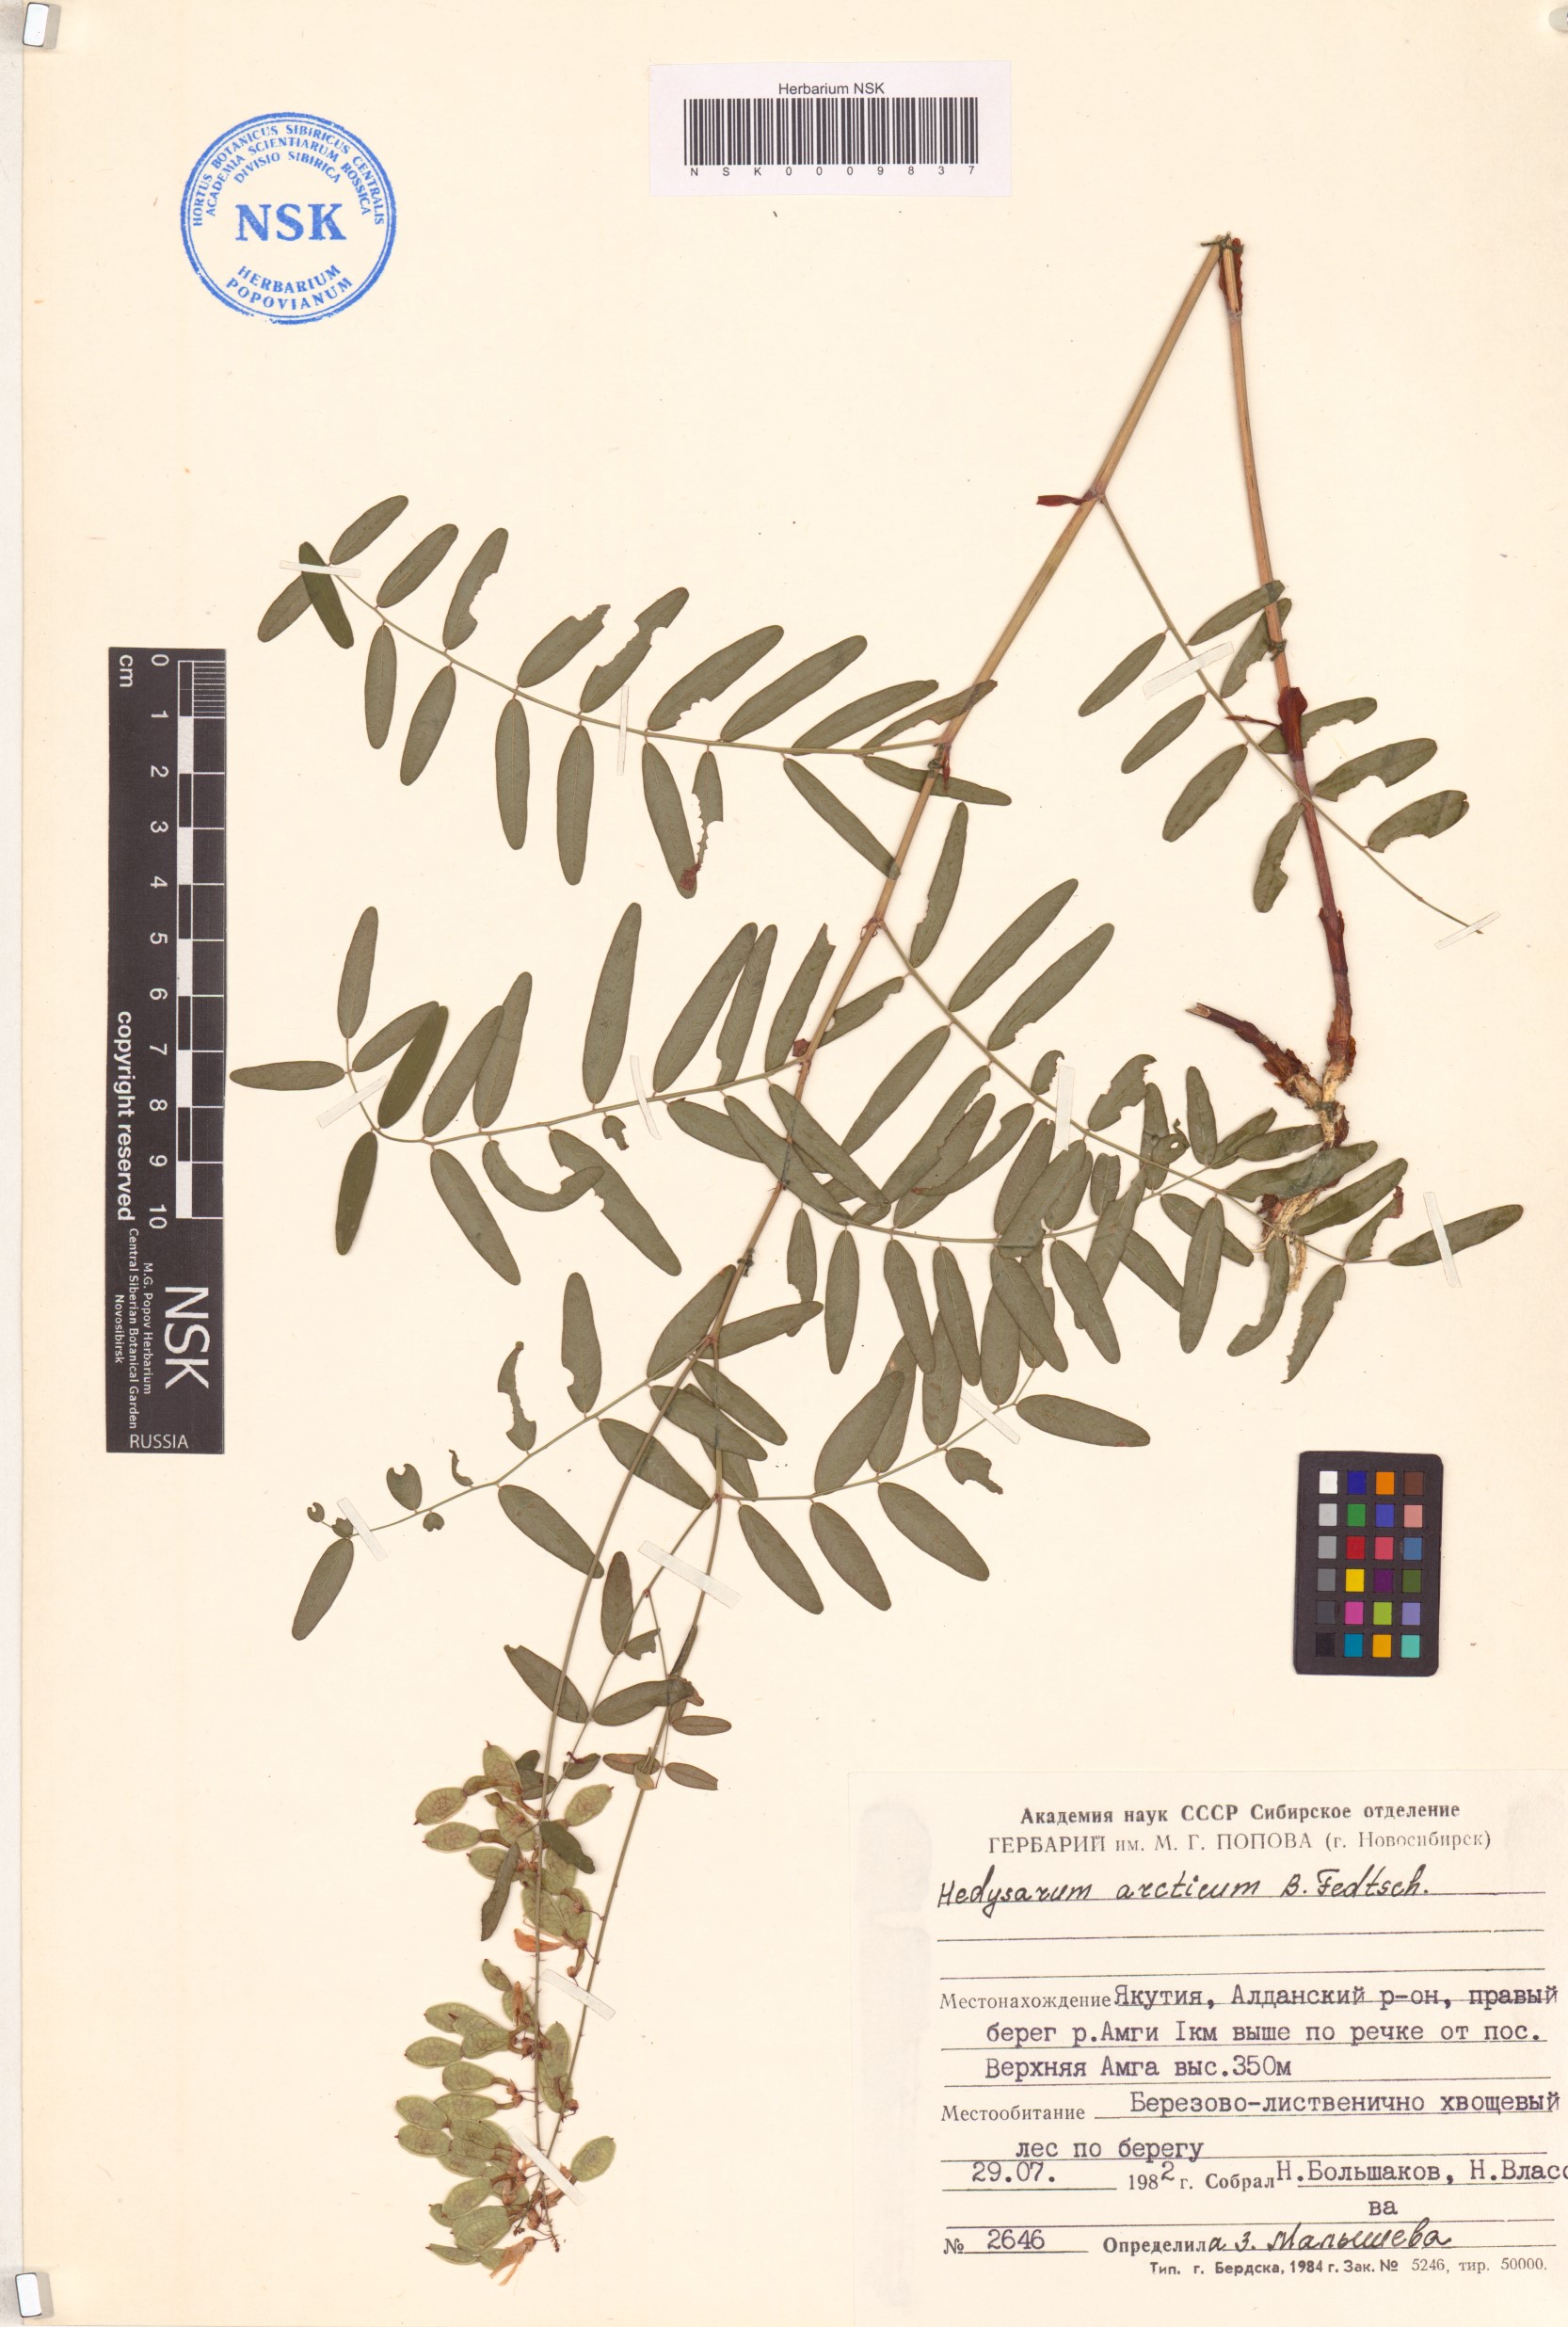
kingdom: Plantae
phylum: Tracheophyta
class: Magnoliopsida
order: Fabales
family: Fabaceae
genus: Hedysarum
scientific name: Hedysarum hedysaroides
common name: Alpine french-honeysuckle
